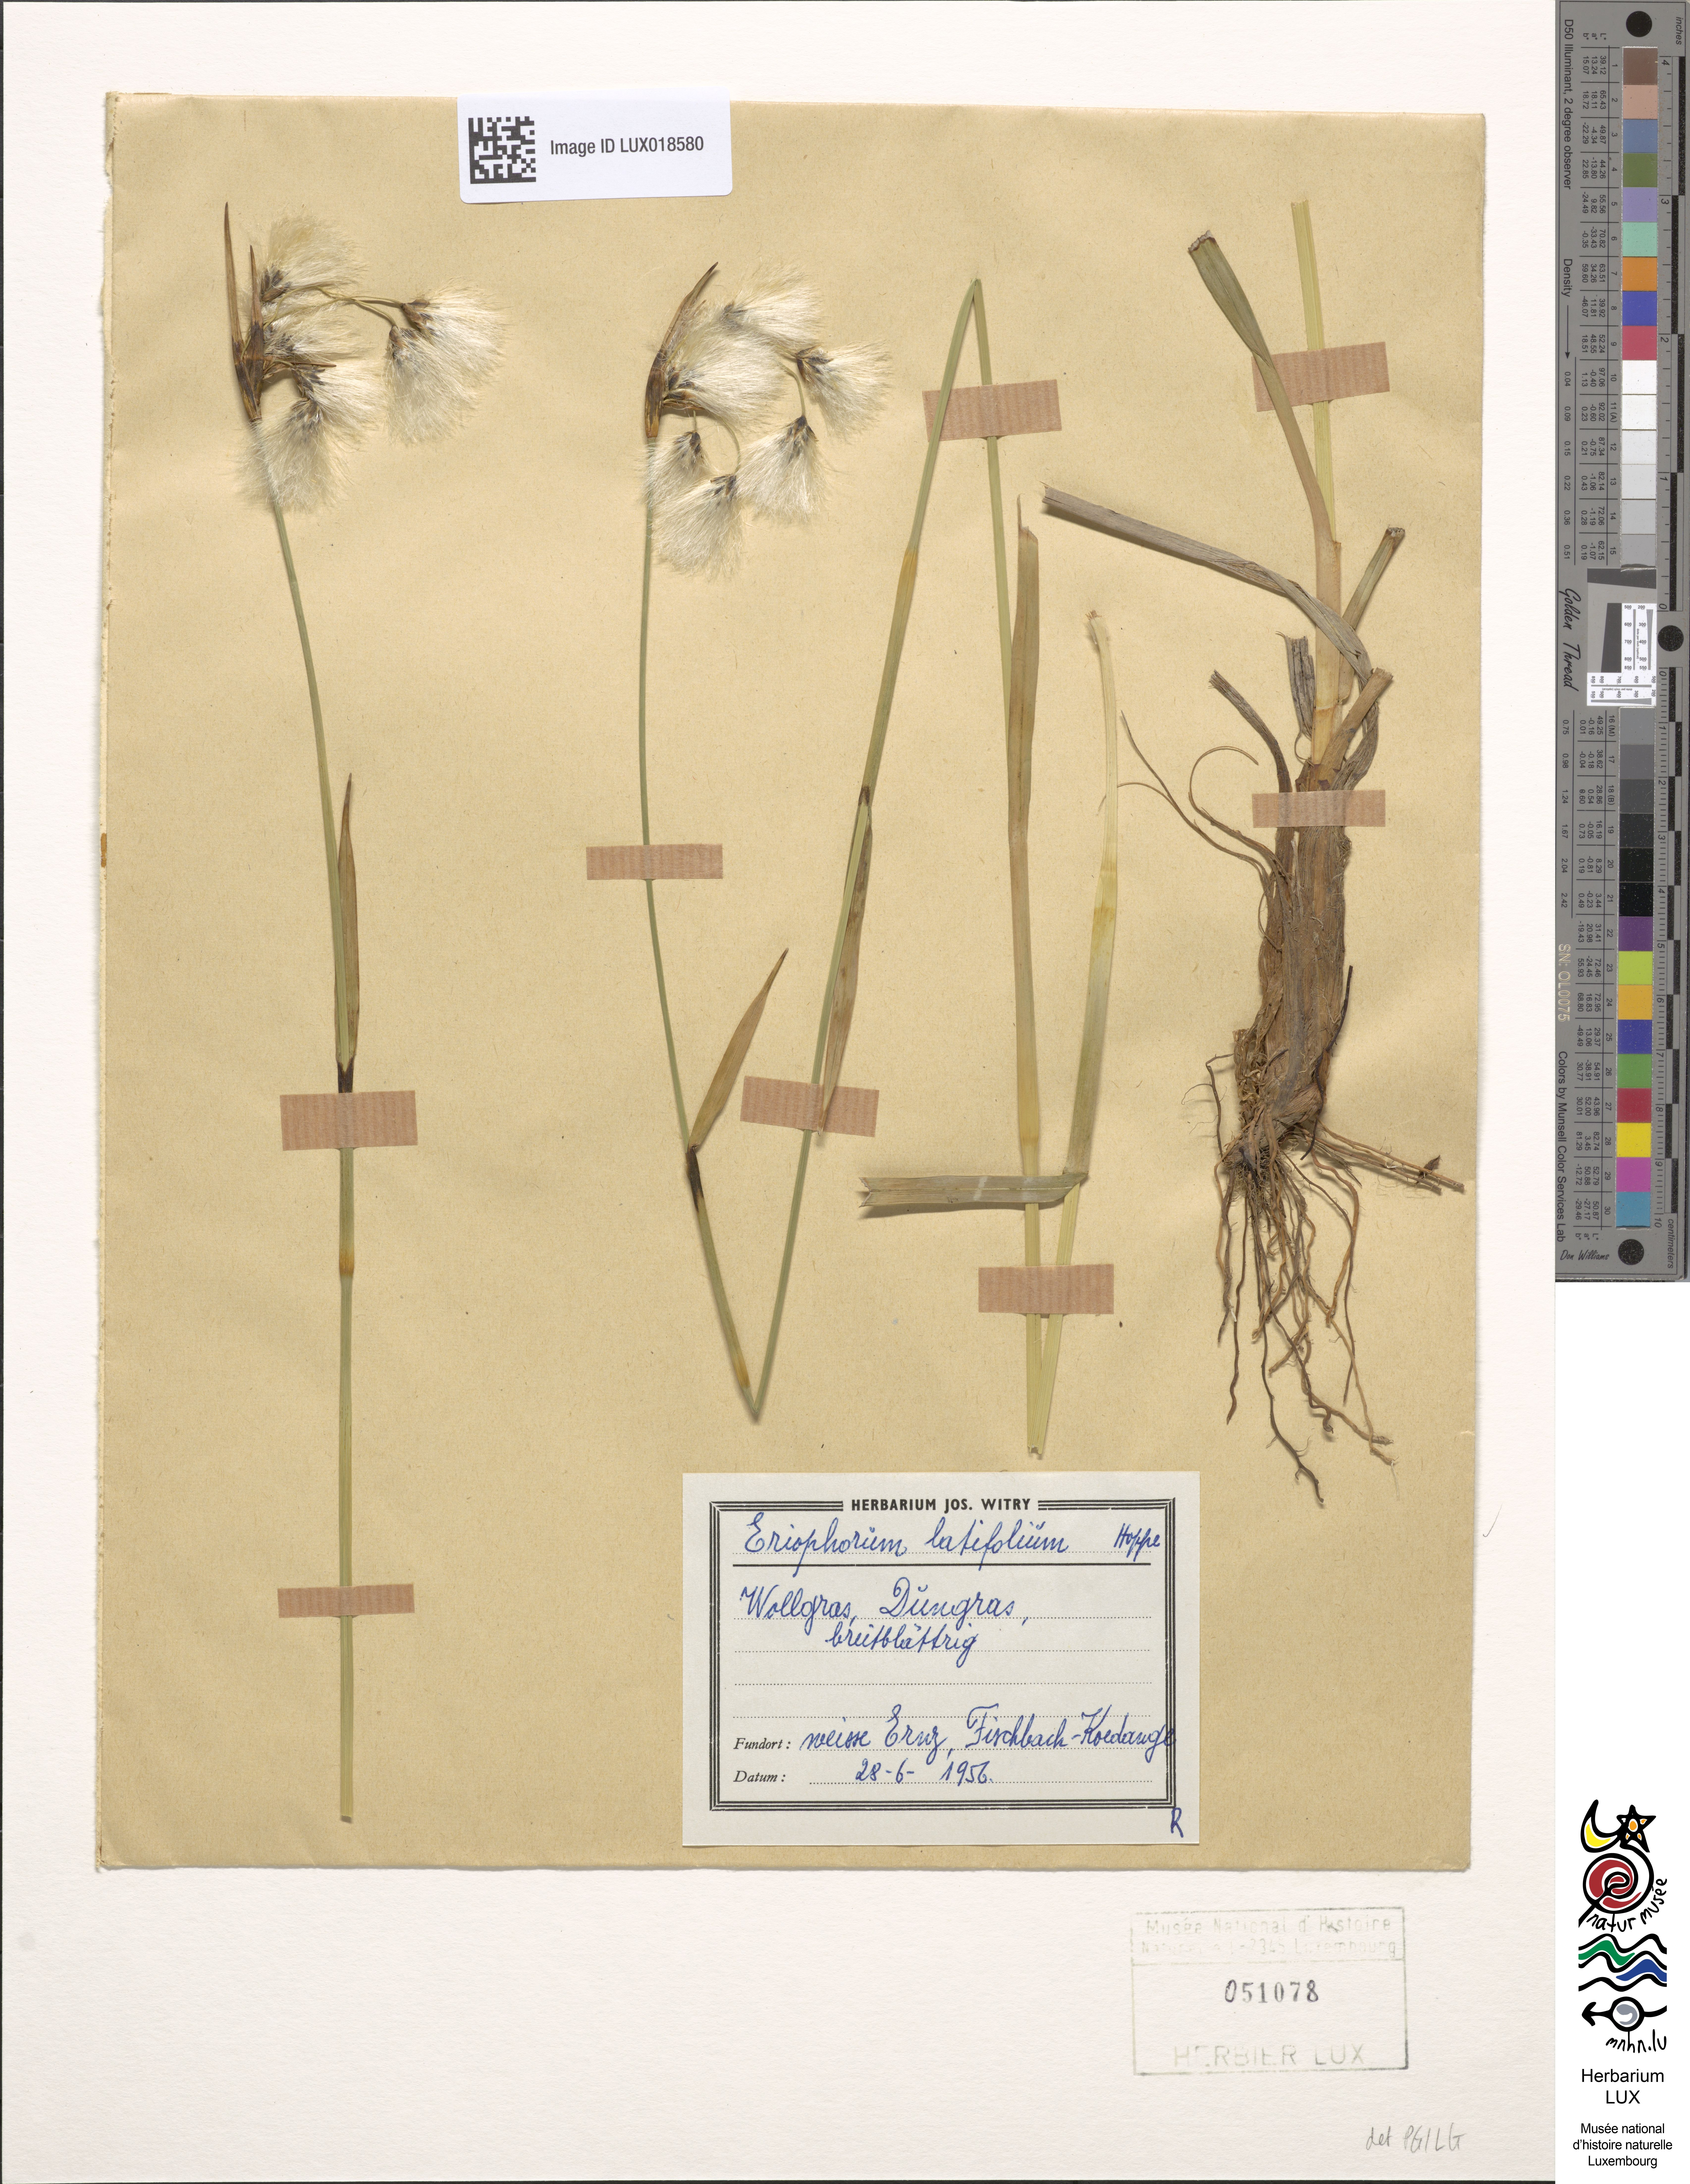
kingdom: Plantae
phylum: Tracheophyta
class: Liliopsida
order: Poales
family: Cyperaceae
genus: Eriophorum
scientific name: Eriophorum angustifolium
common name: Common cottongrass
